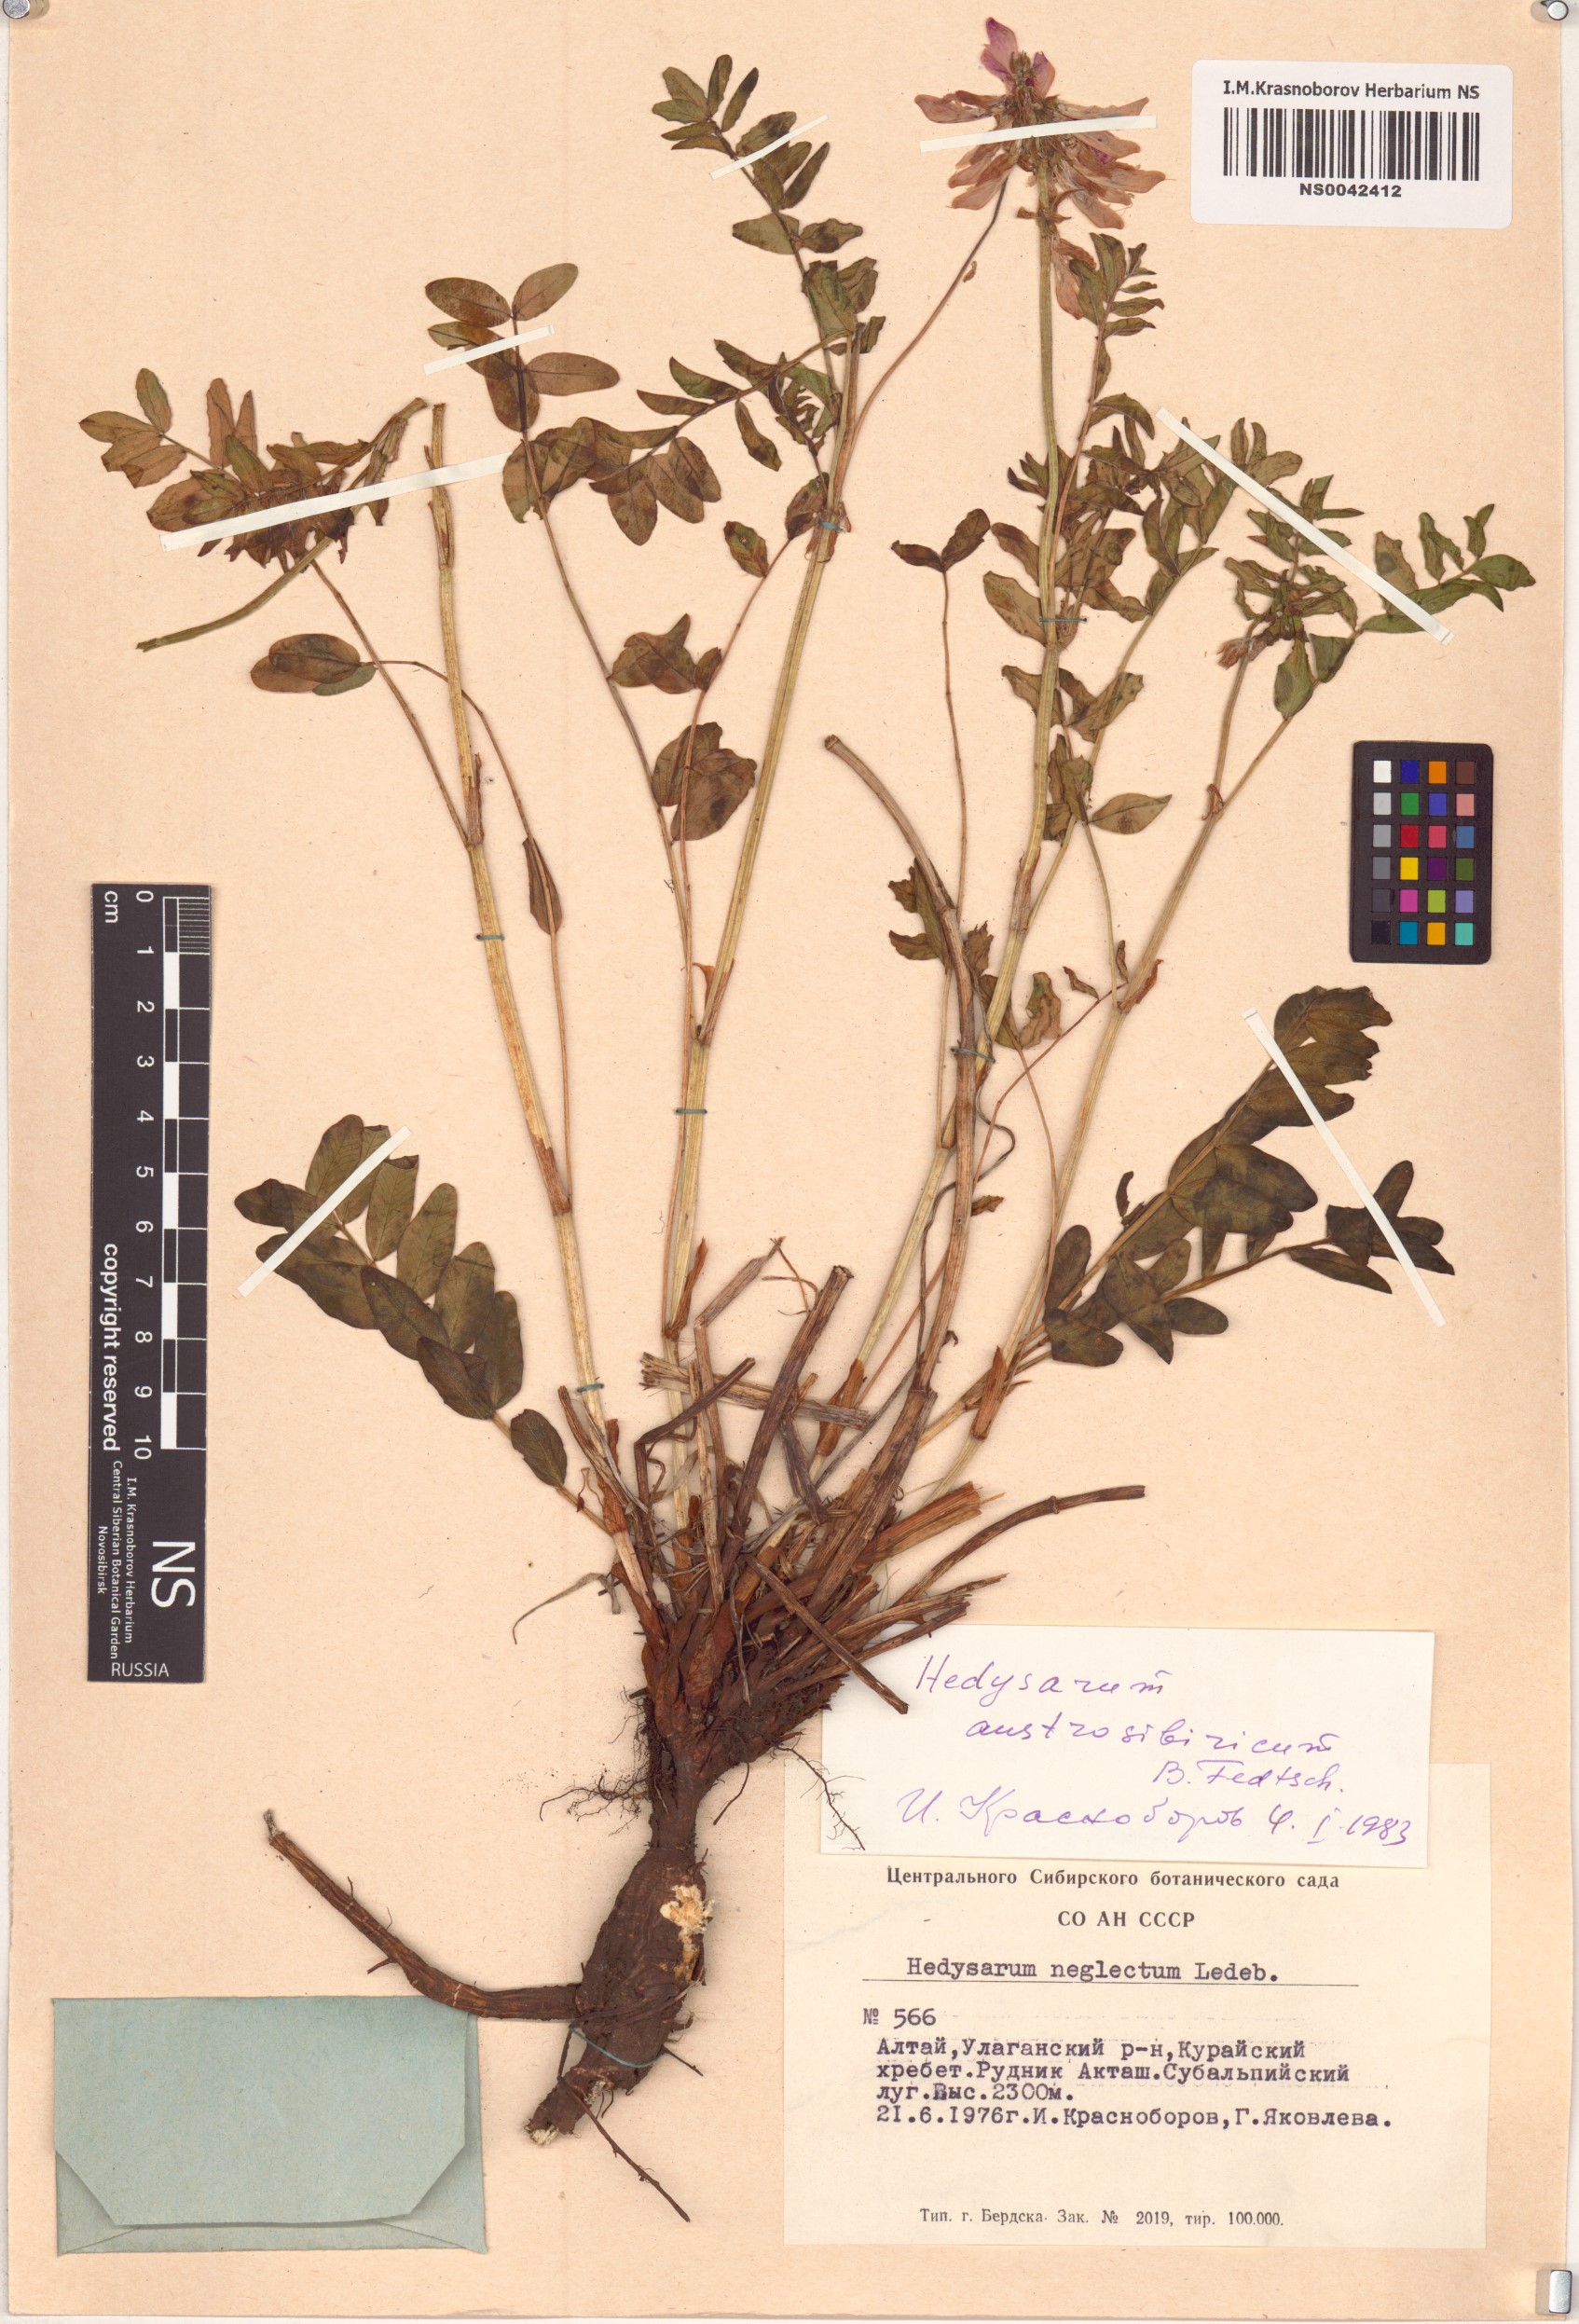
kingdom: Plantae
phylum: Tracheophyta
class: Magnoliopsida
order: Fabales
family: Fabaceae
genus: Hedysarum
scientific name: Hedysarum neglectum
